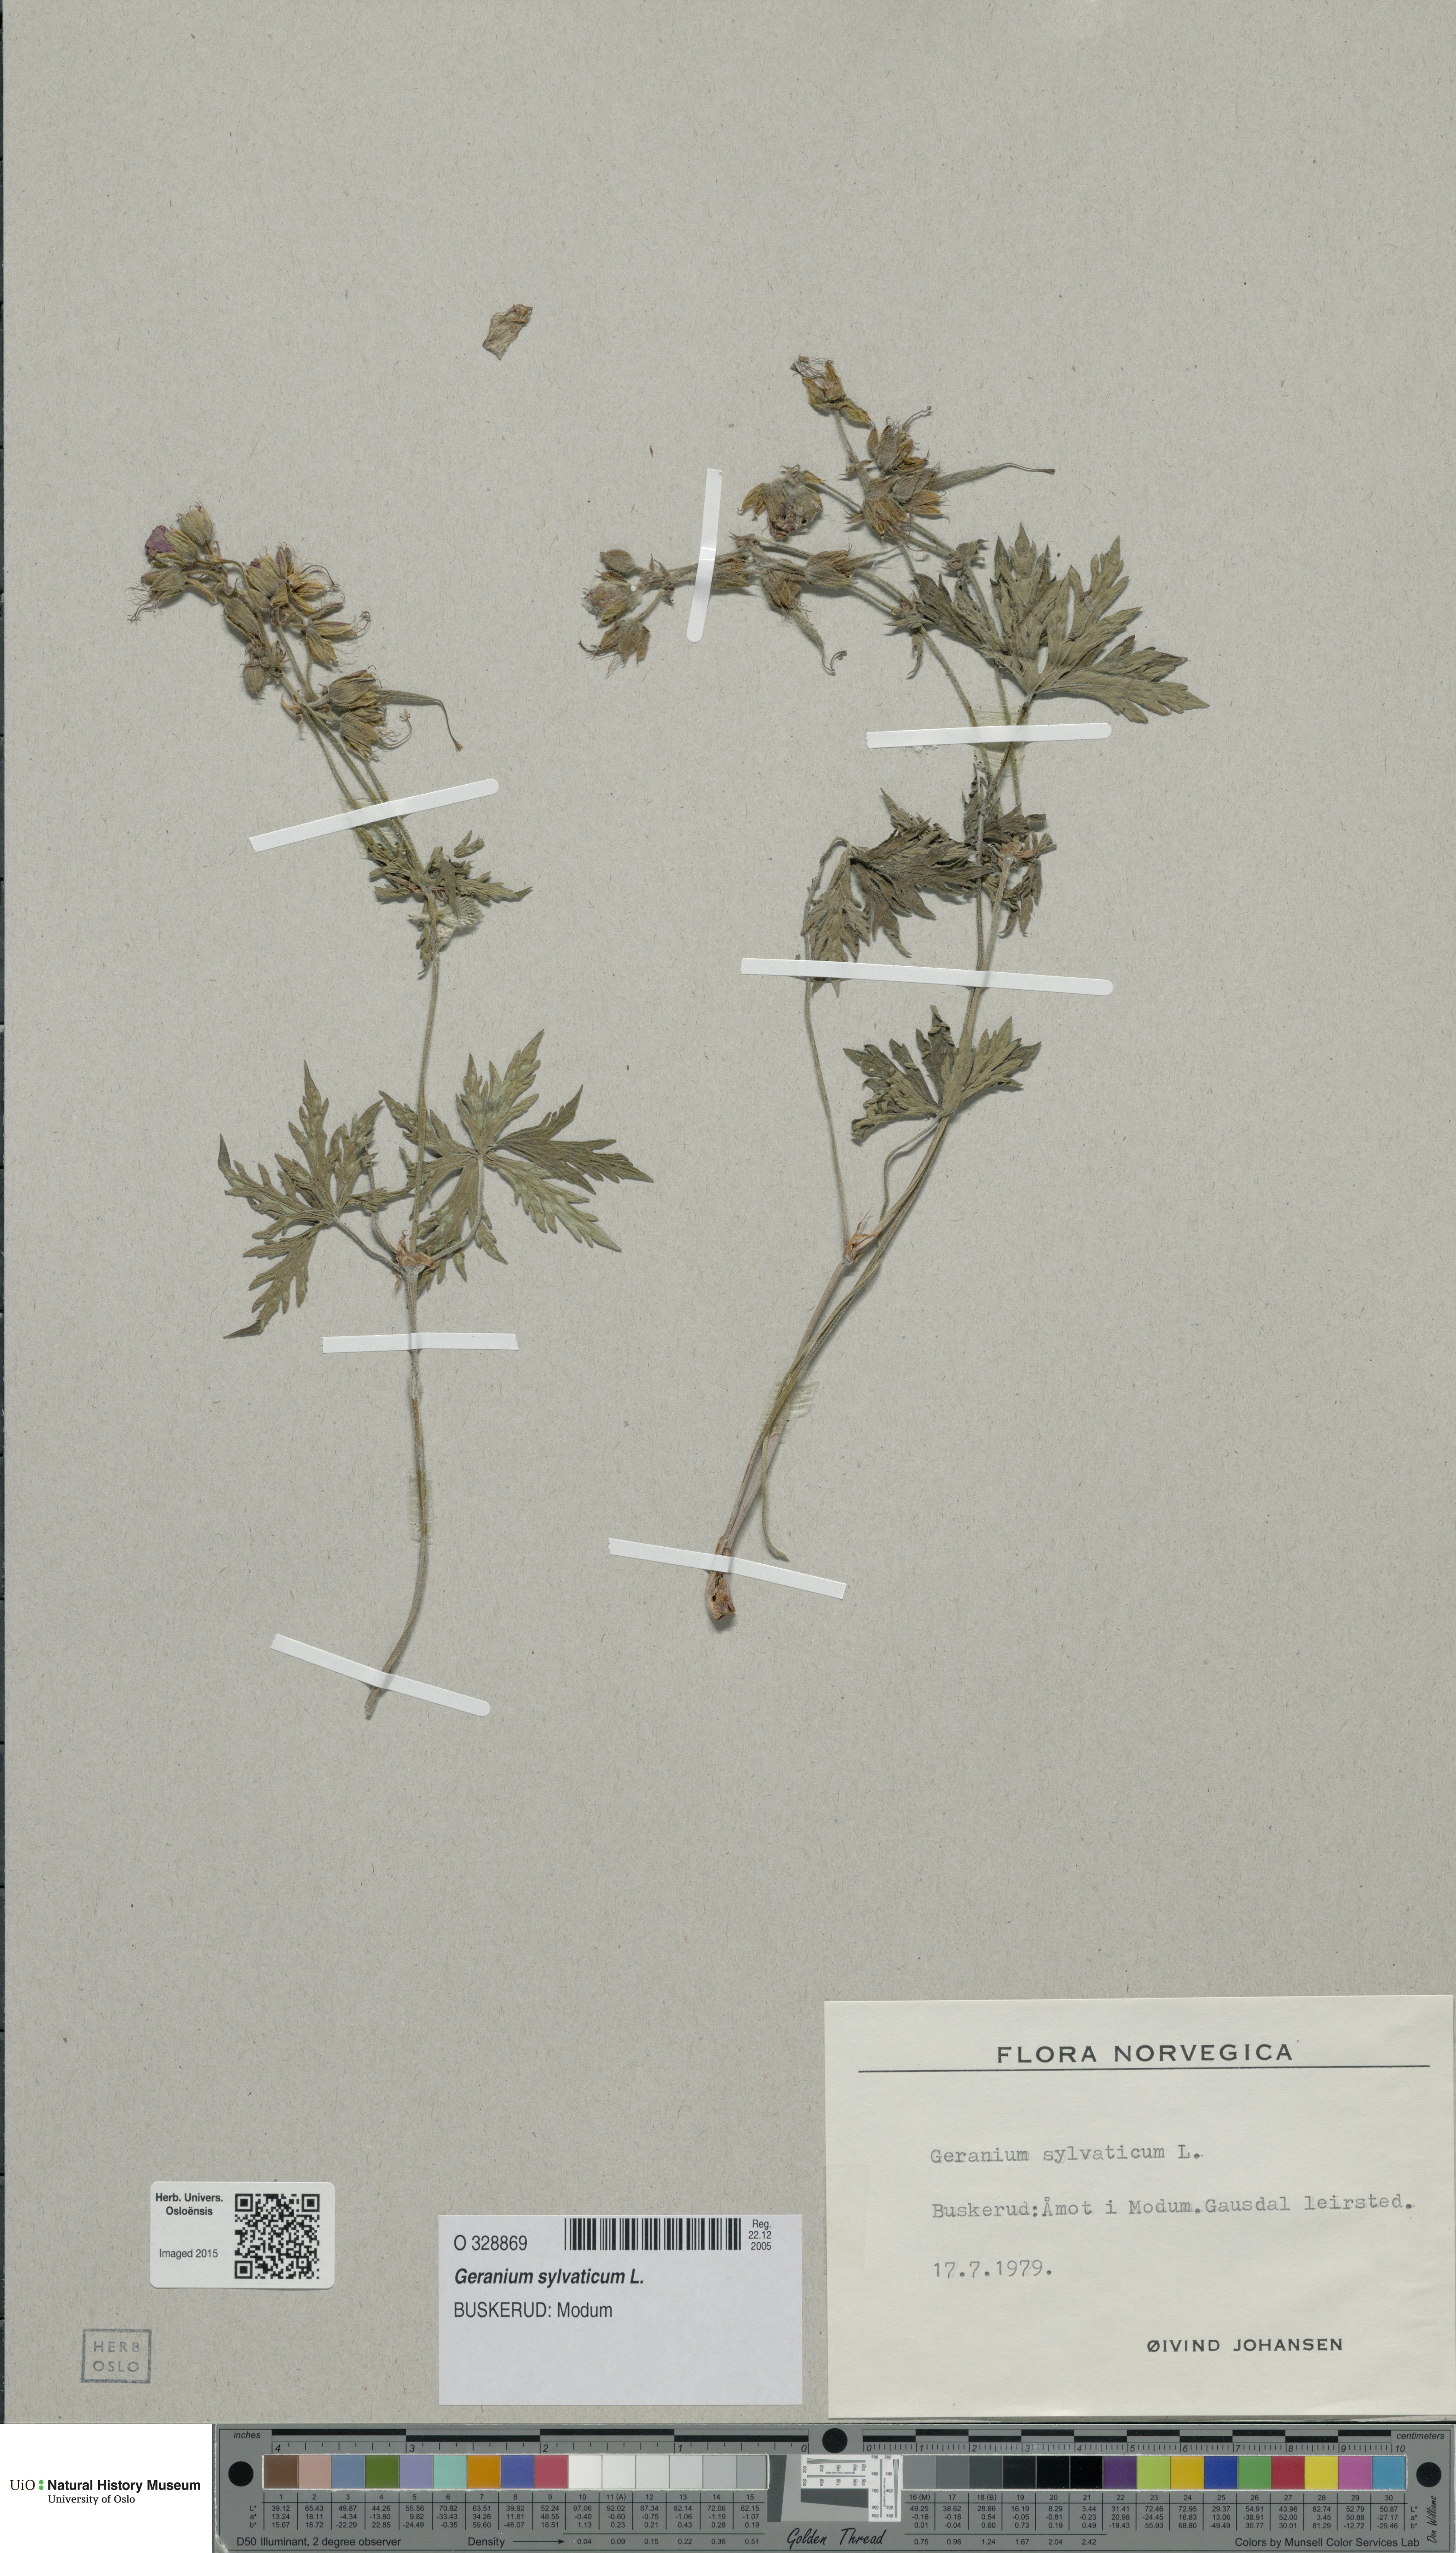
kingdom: Plantae
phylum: Tracheophyta
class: Magnoliopsida
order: Geraniales
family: Geraniaceae
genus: Geranium
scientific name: Geranium sylvaticum
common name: Wood crane's-bill
